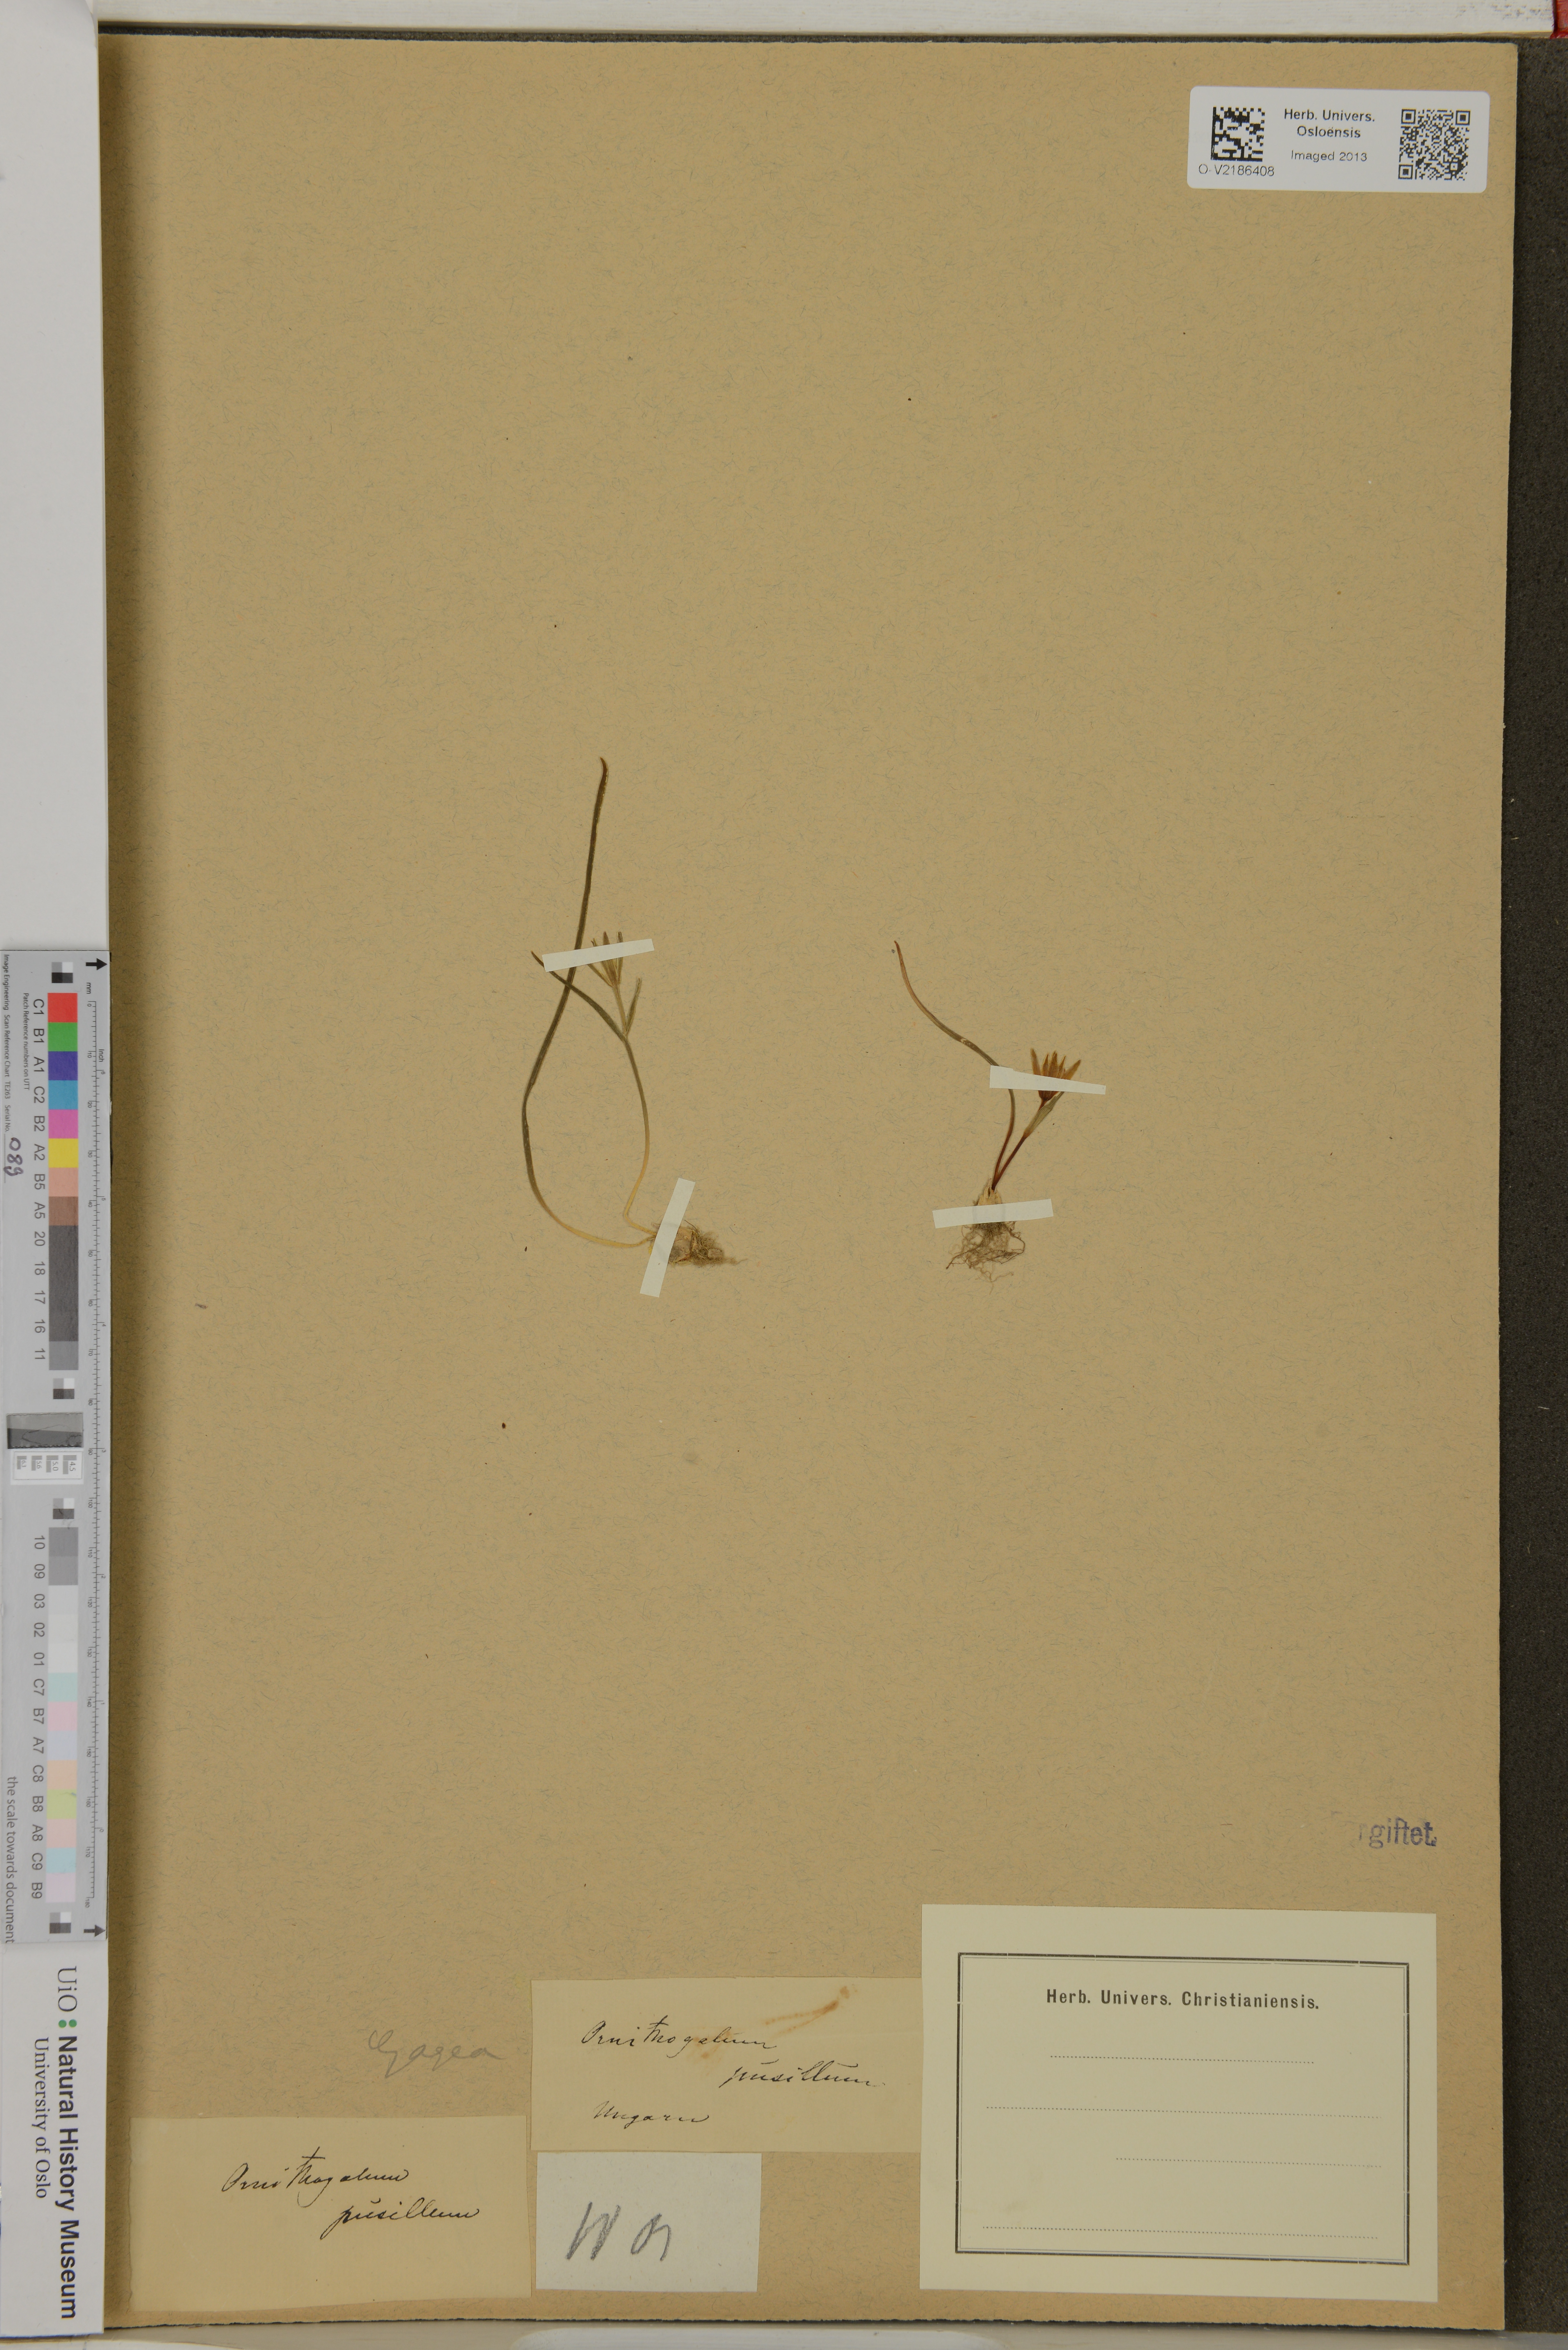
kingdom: Plantae
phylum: Tracheophyta
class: Liliopsida
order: Asparagales
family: Asparagaceae
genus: Ornithogalum
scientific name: Ornithogalum pusillum
